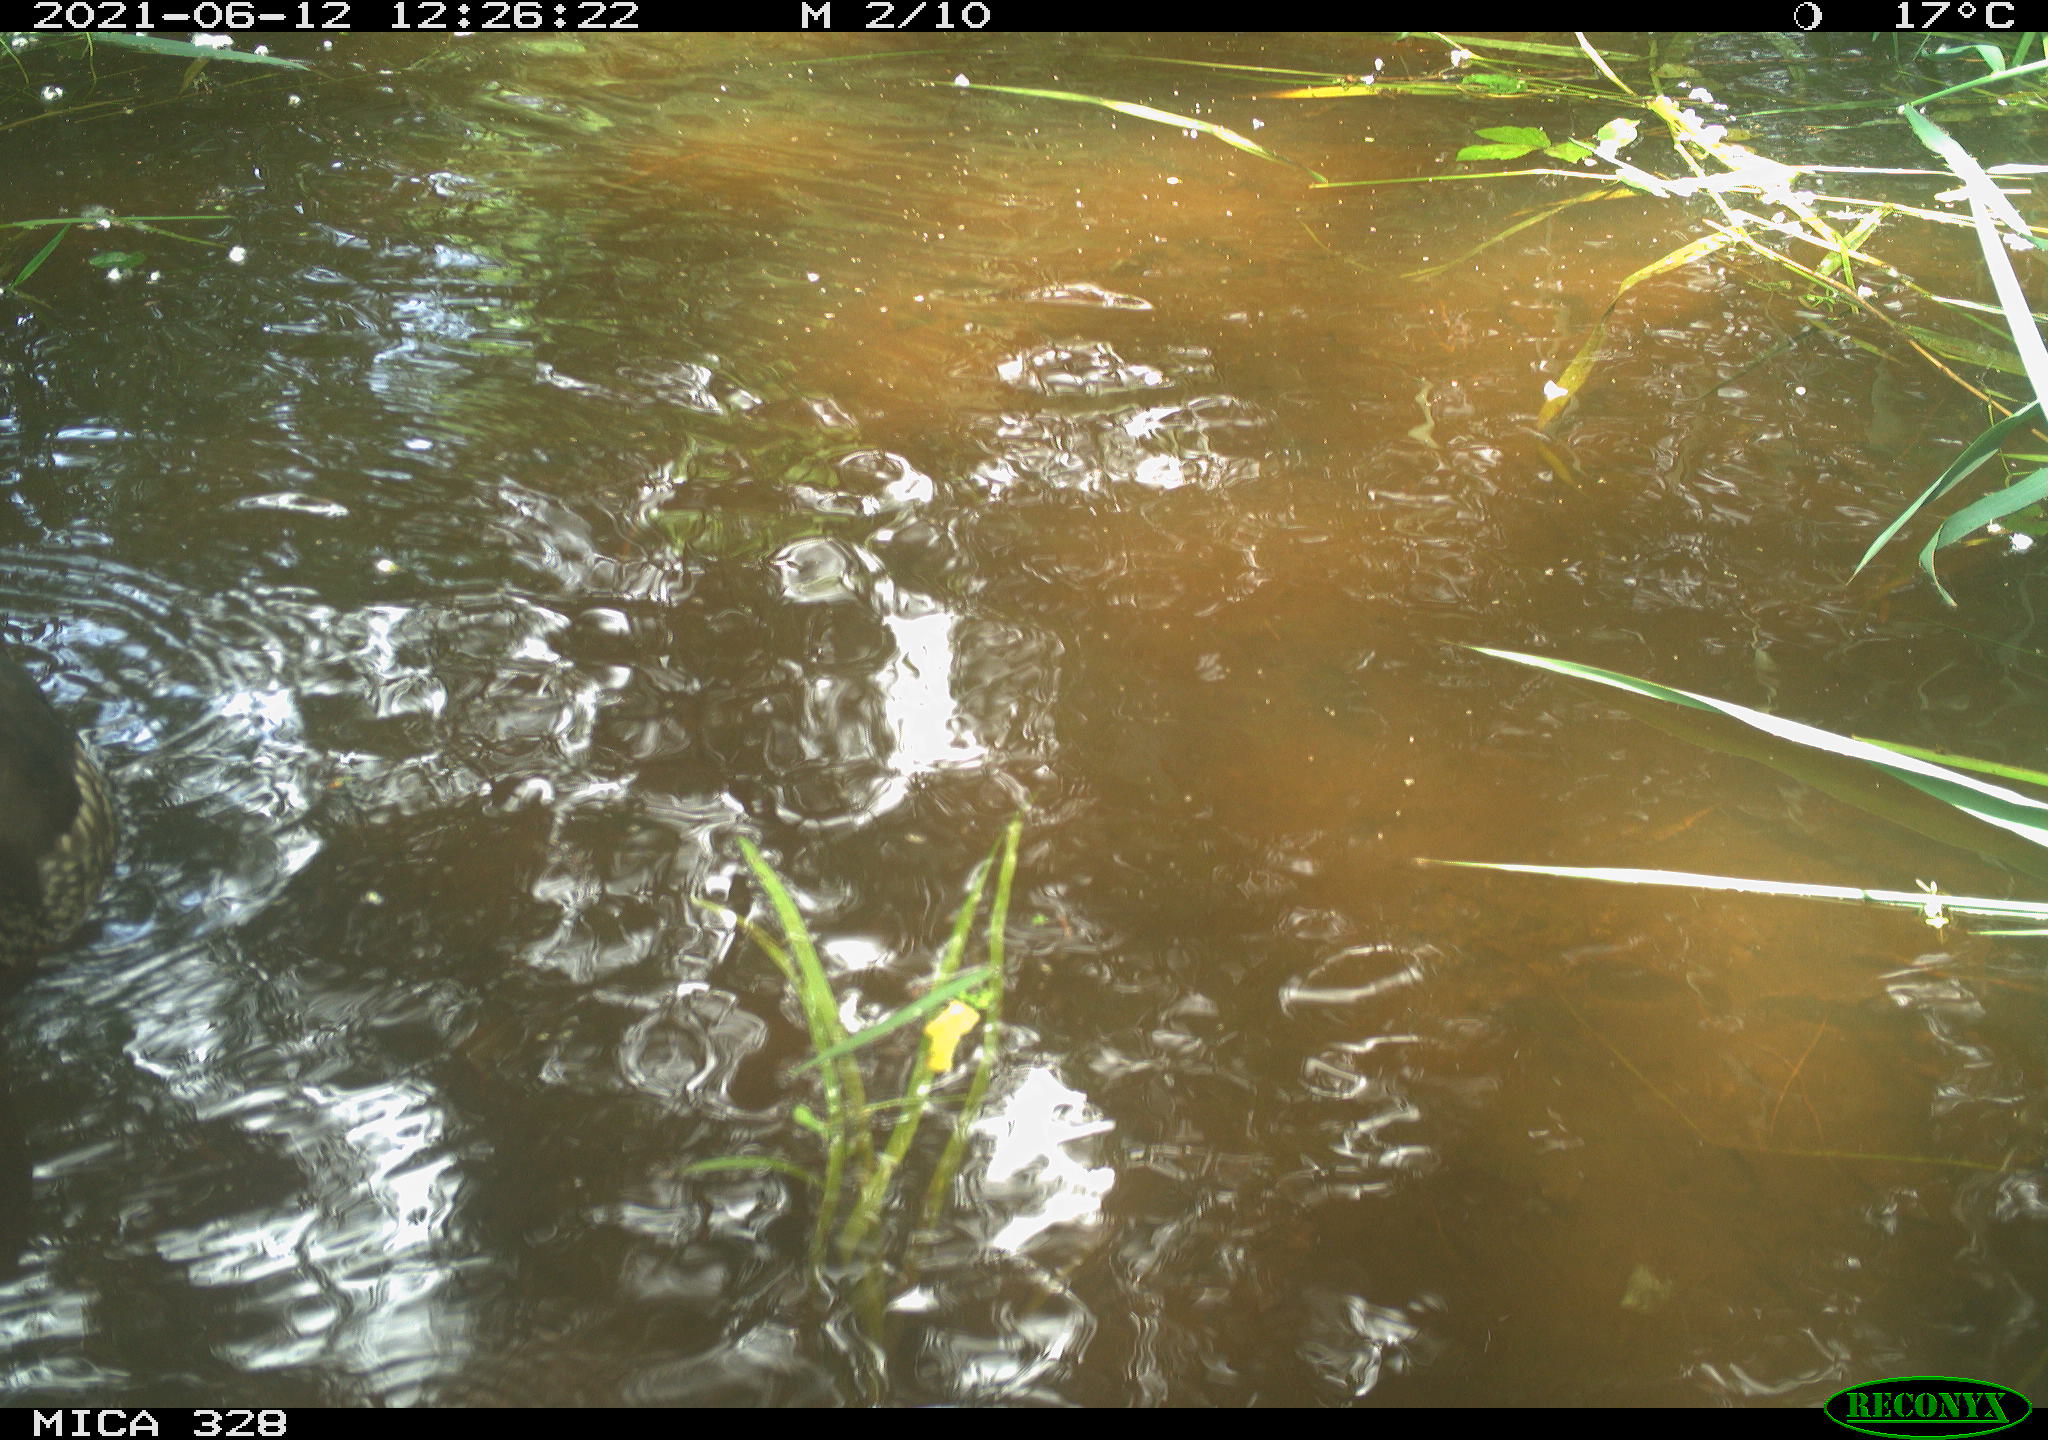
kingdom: Animalia
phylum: Chordata
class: Aves
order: Anseriformes
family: Anatidae
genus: Aix
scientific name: Aix galericulata
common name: Mandarin duck
